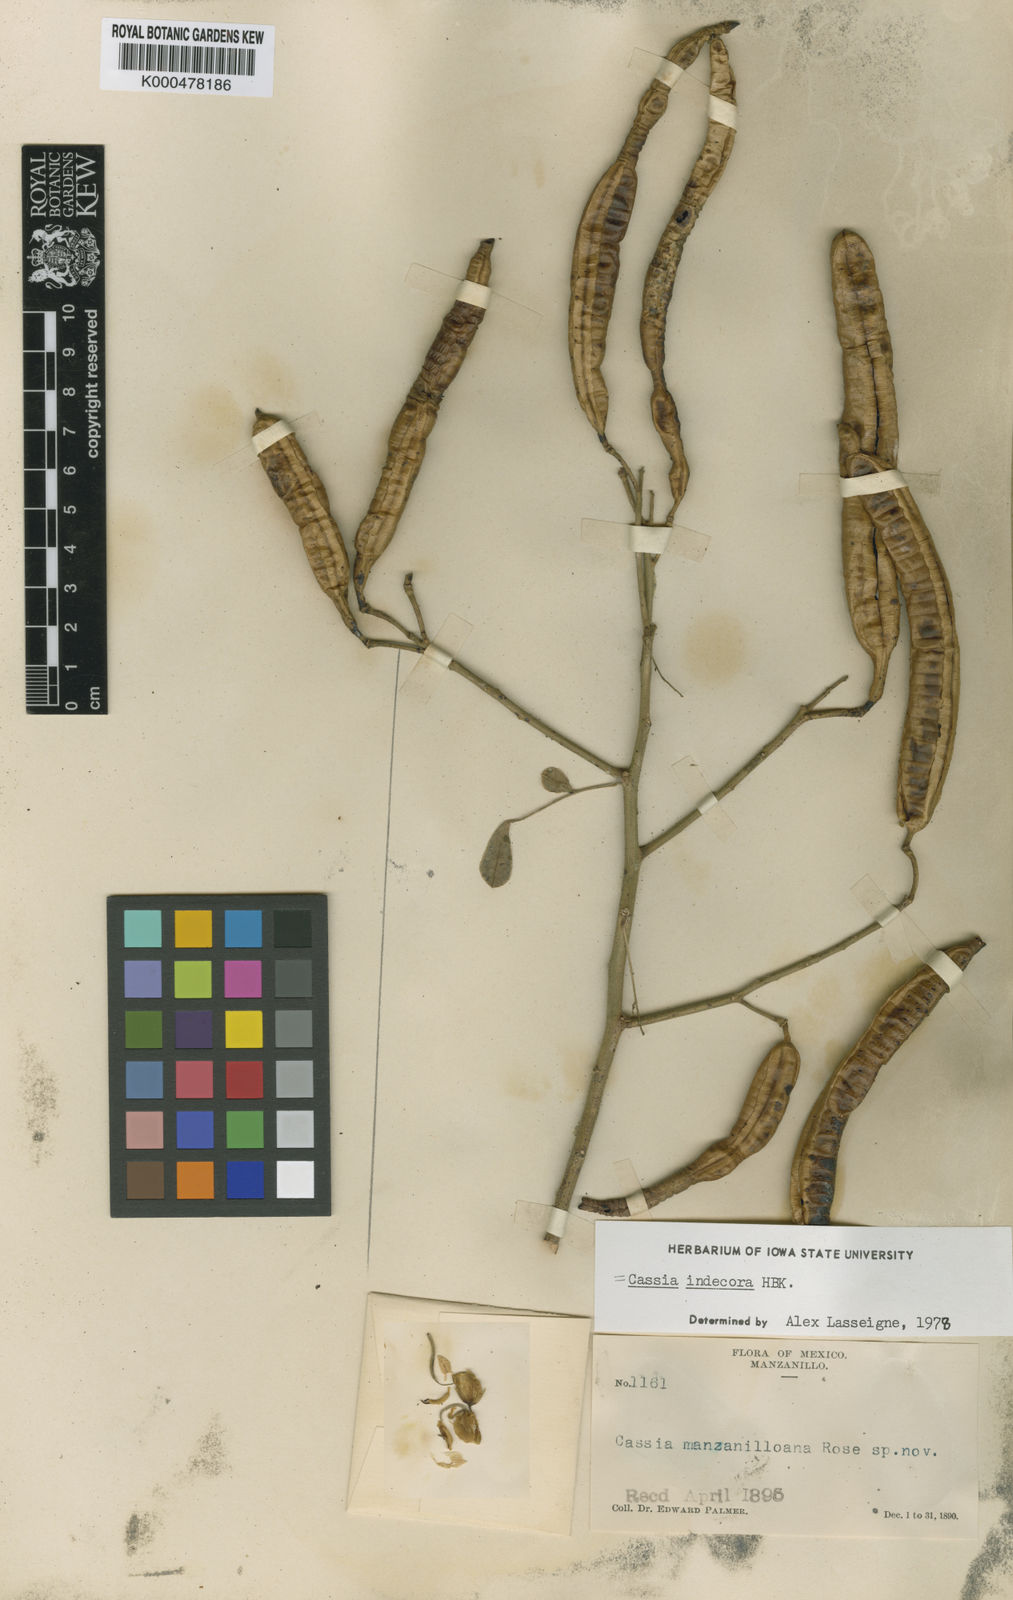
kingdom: Plantae
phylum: Tracheophyta
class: Magnoliopsida
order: Fabales
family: Fabaceae
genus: Senna
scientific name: Senna pendula
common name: Easter cassia
